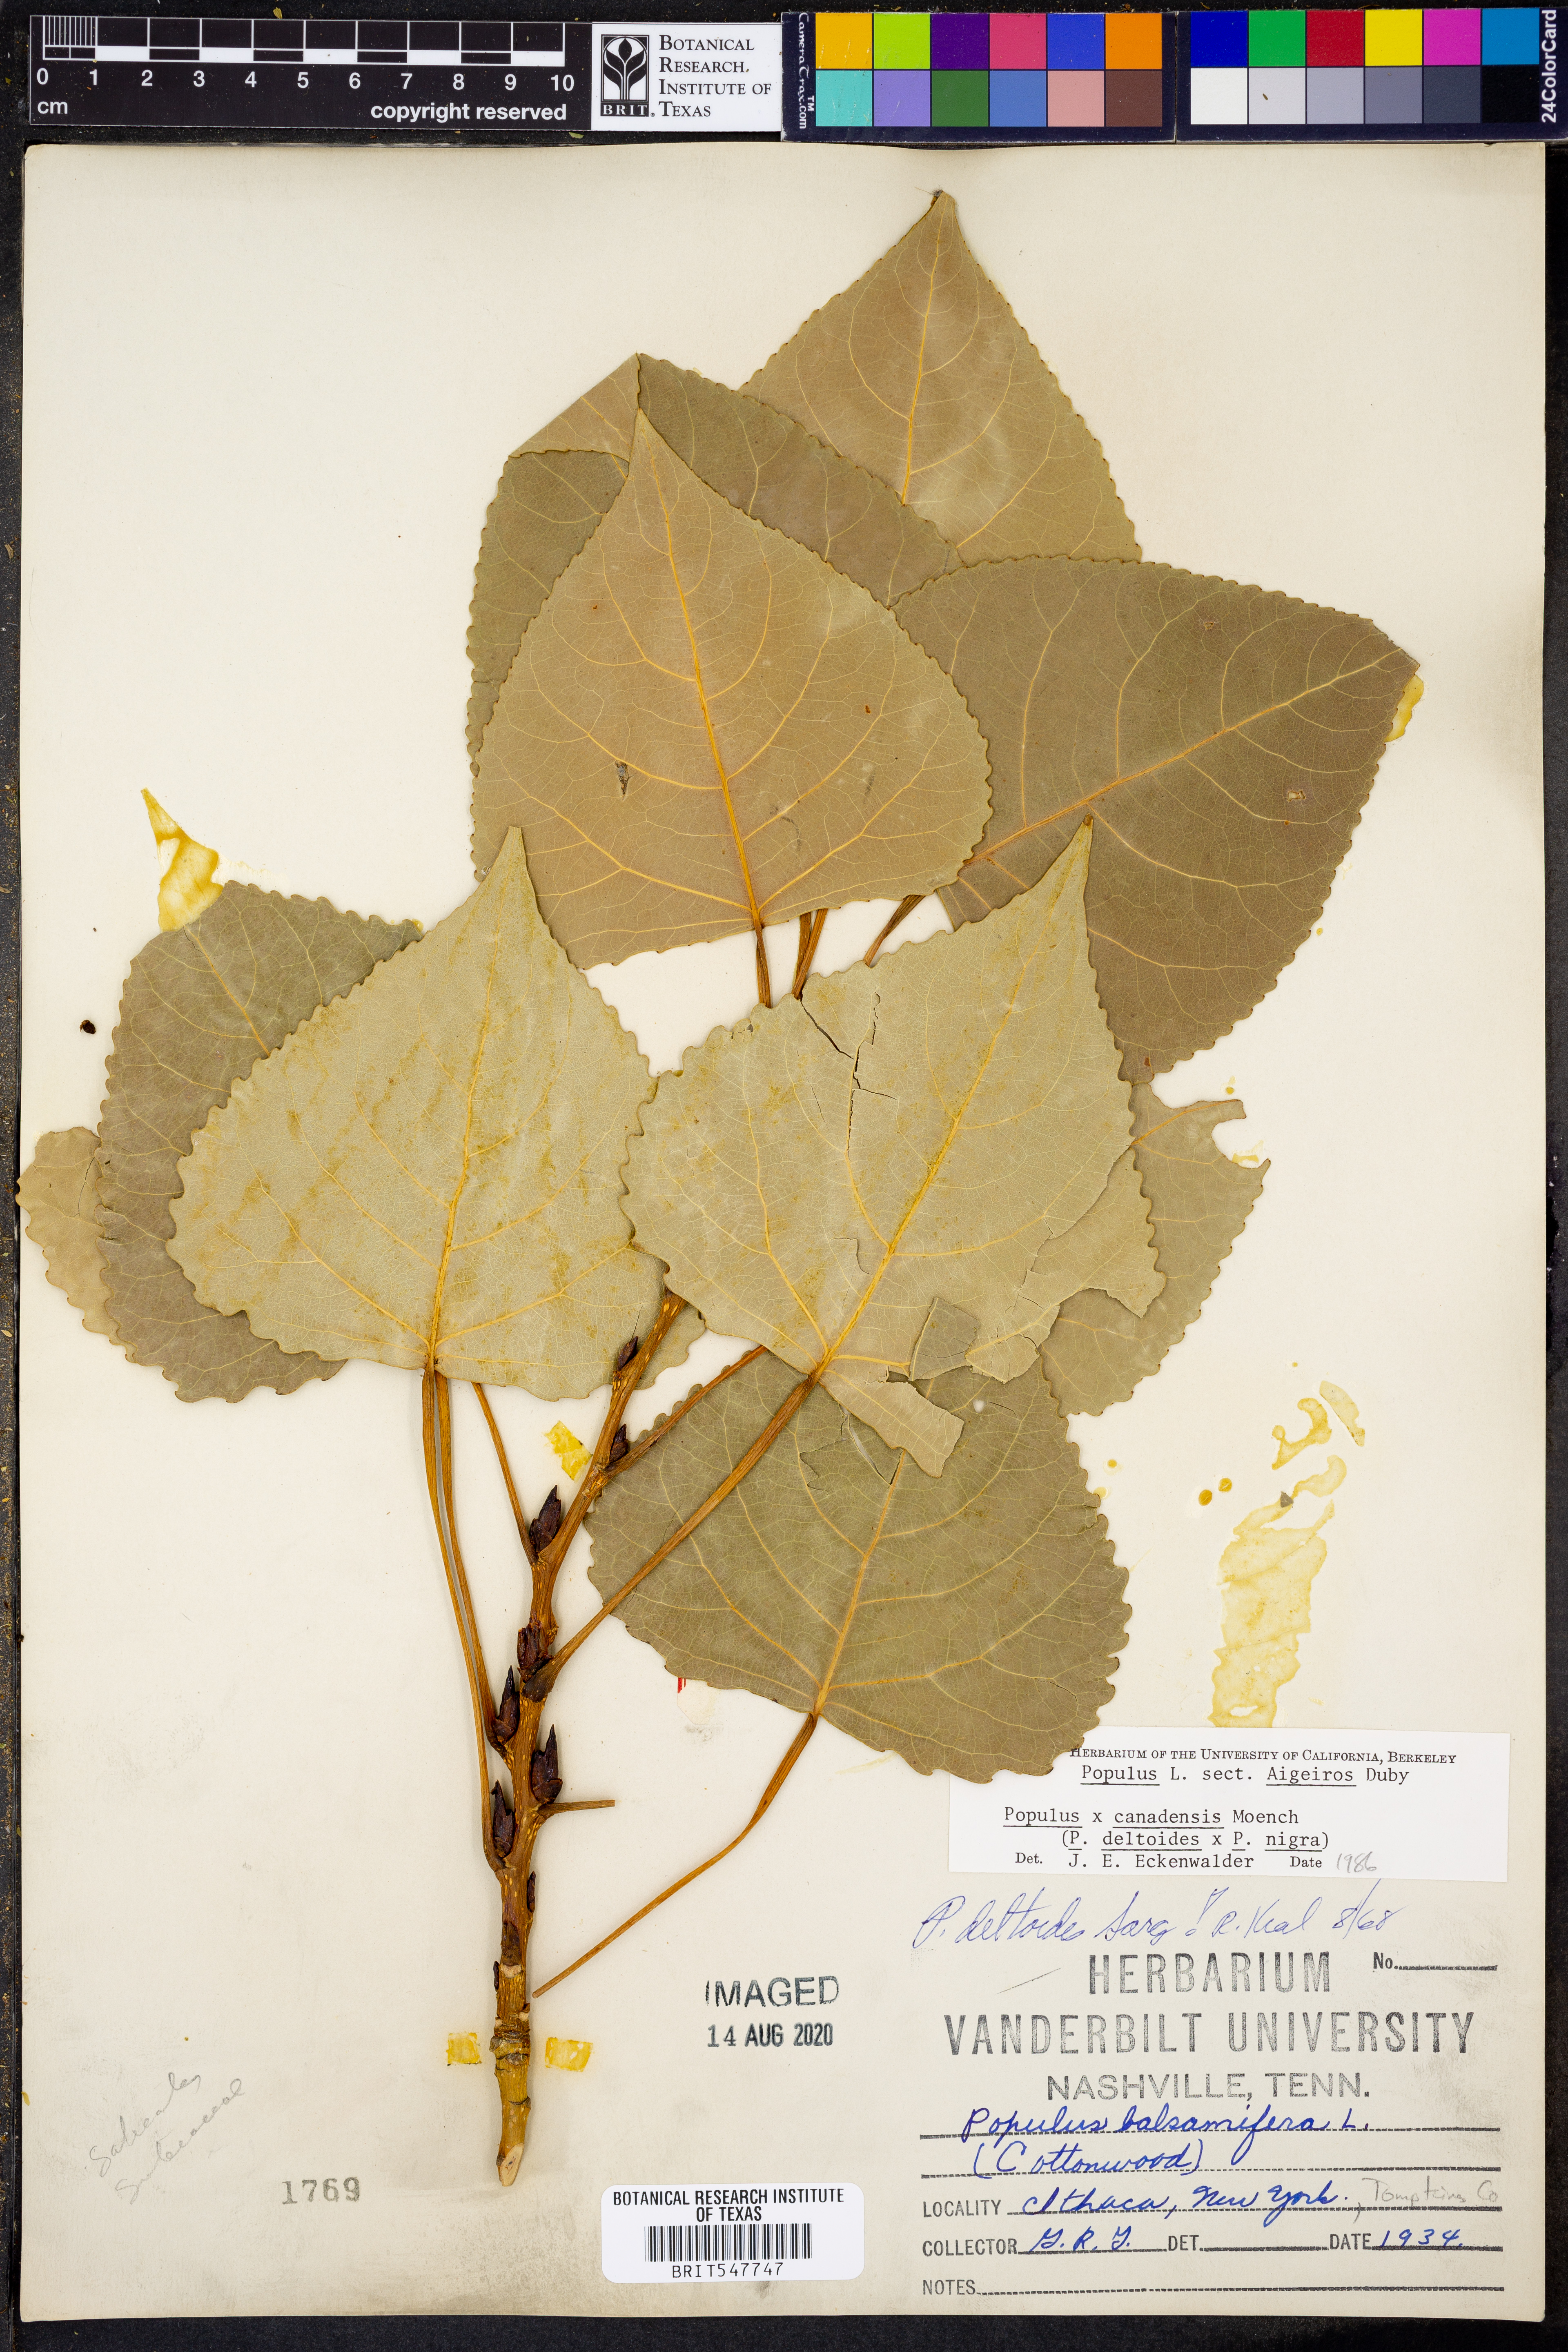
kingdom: Plantae
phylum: Tracheophyta
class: Magnoliopsida
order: Malpighiales
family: Salicaceae
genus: Populus
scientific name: Populus
